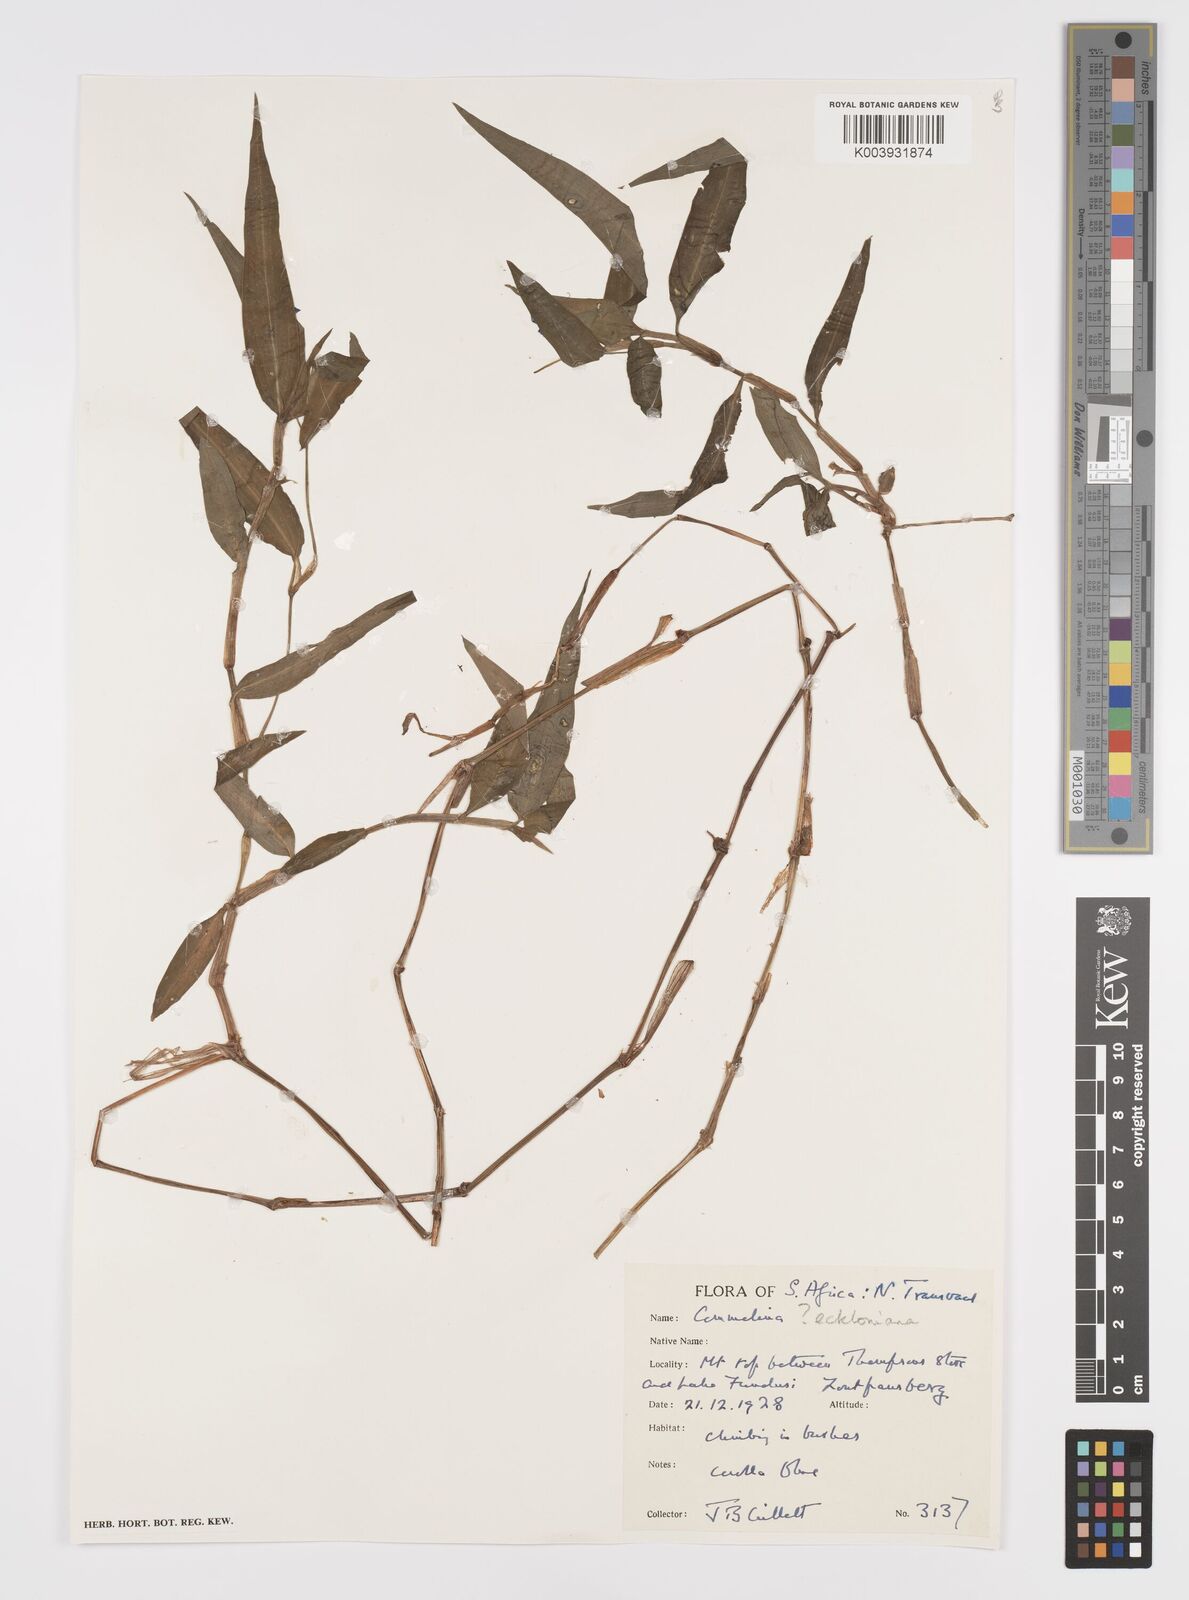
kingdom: Plantae
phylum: Tracheophyta
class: Liliopsida
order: Commelinales
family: Commelinaceae
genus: Commelina
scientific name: Commelina eckloniana
